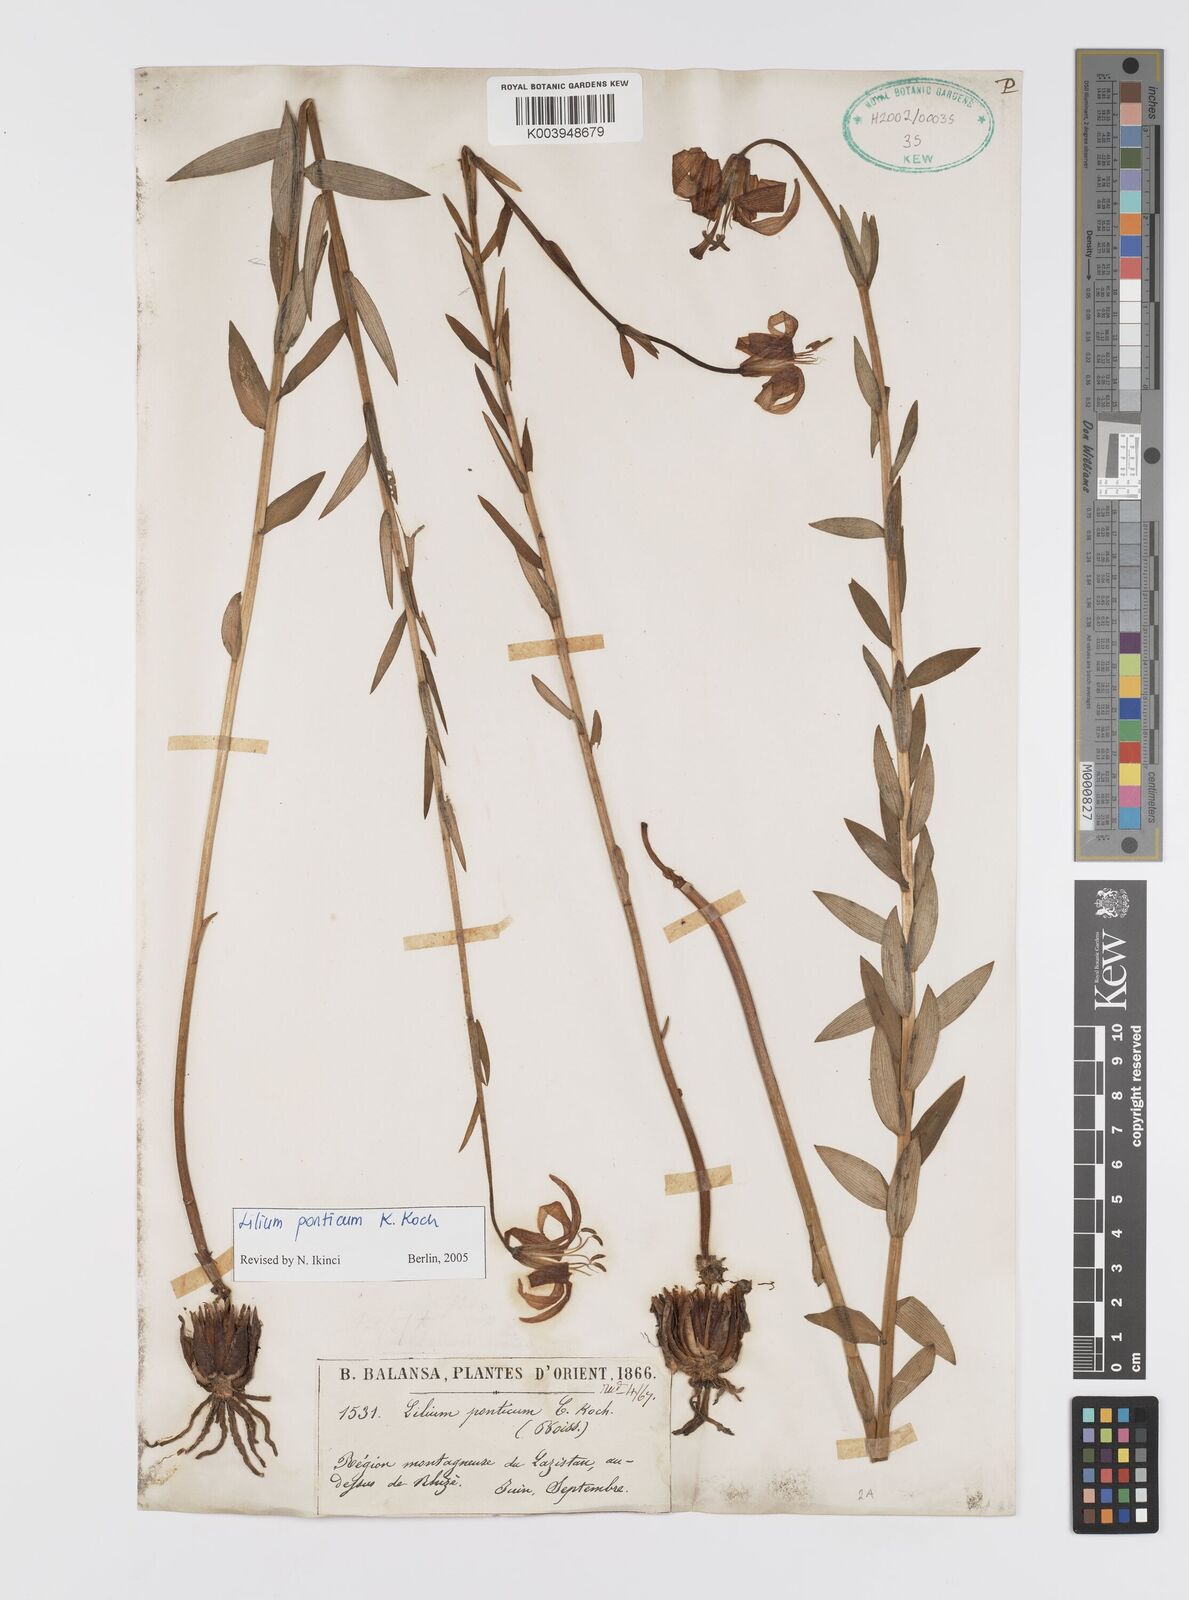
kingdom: Plantae
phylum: Tracheophyta
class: Liliopsida
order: Liliales
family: Liliaceae
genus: Lilium
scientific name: Lilium ponticum
